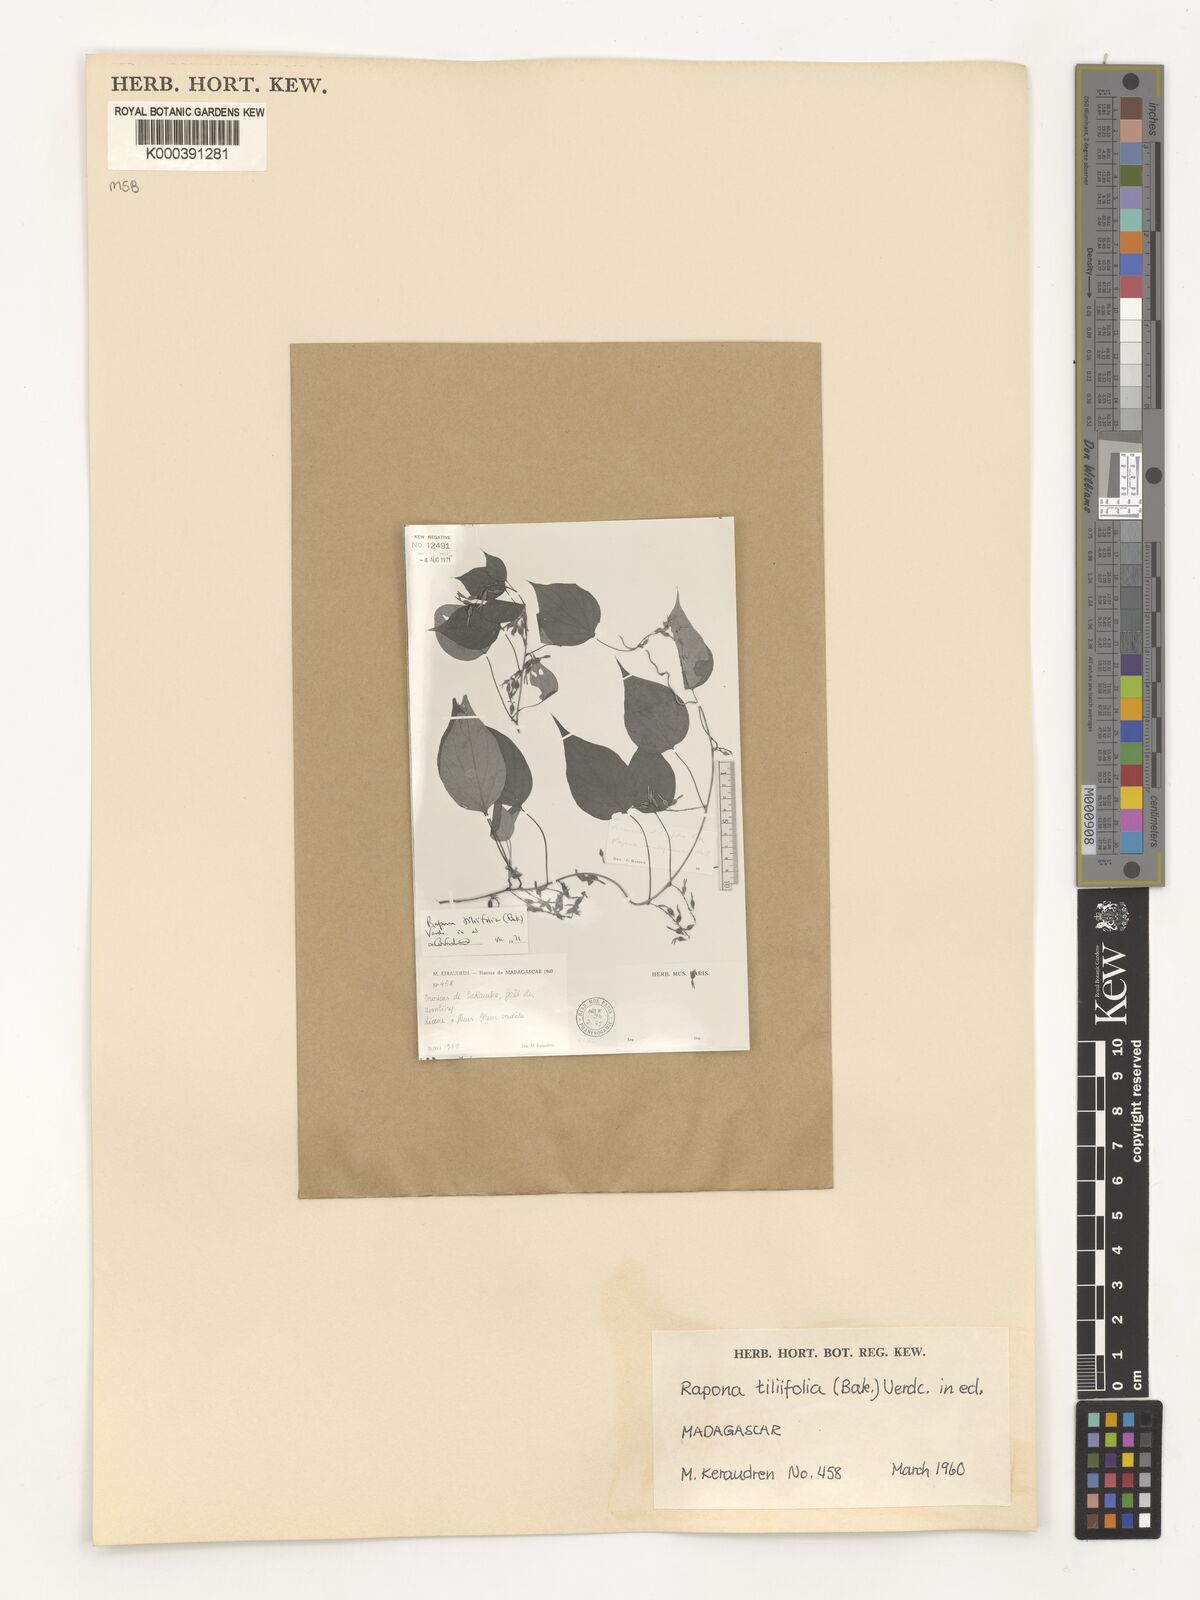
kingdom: Plantae
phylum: Tracheophyta
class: Magnoliopsida
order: Solanales
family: Convolvulaceae
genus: Rapona
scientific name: Rapona tiliifolia
